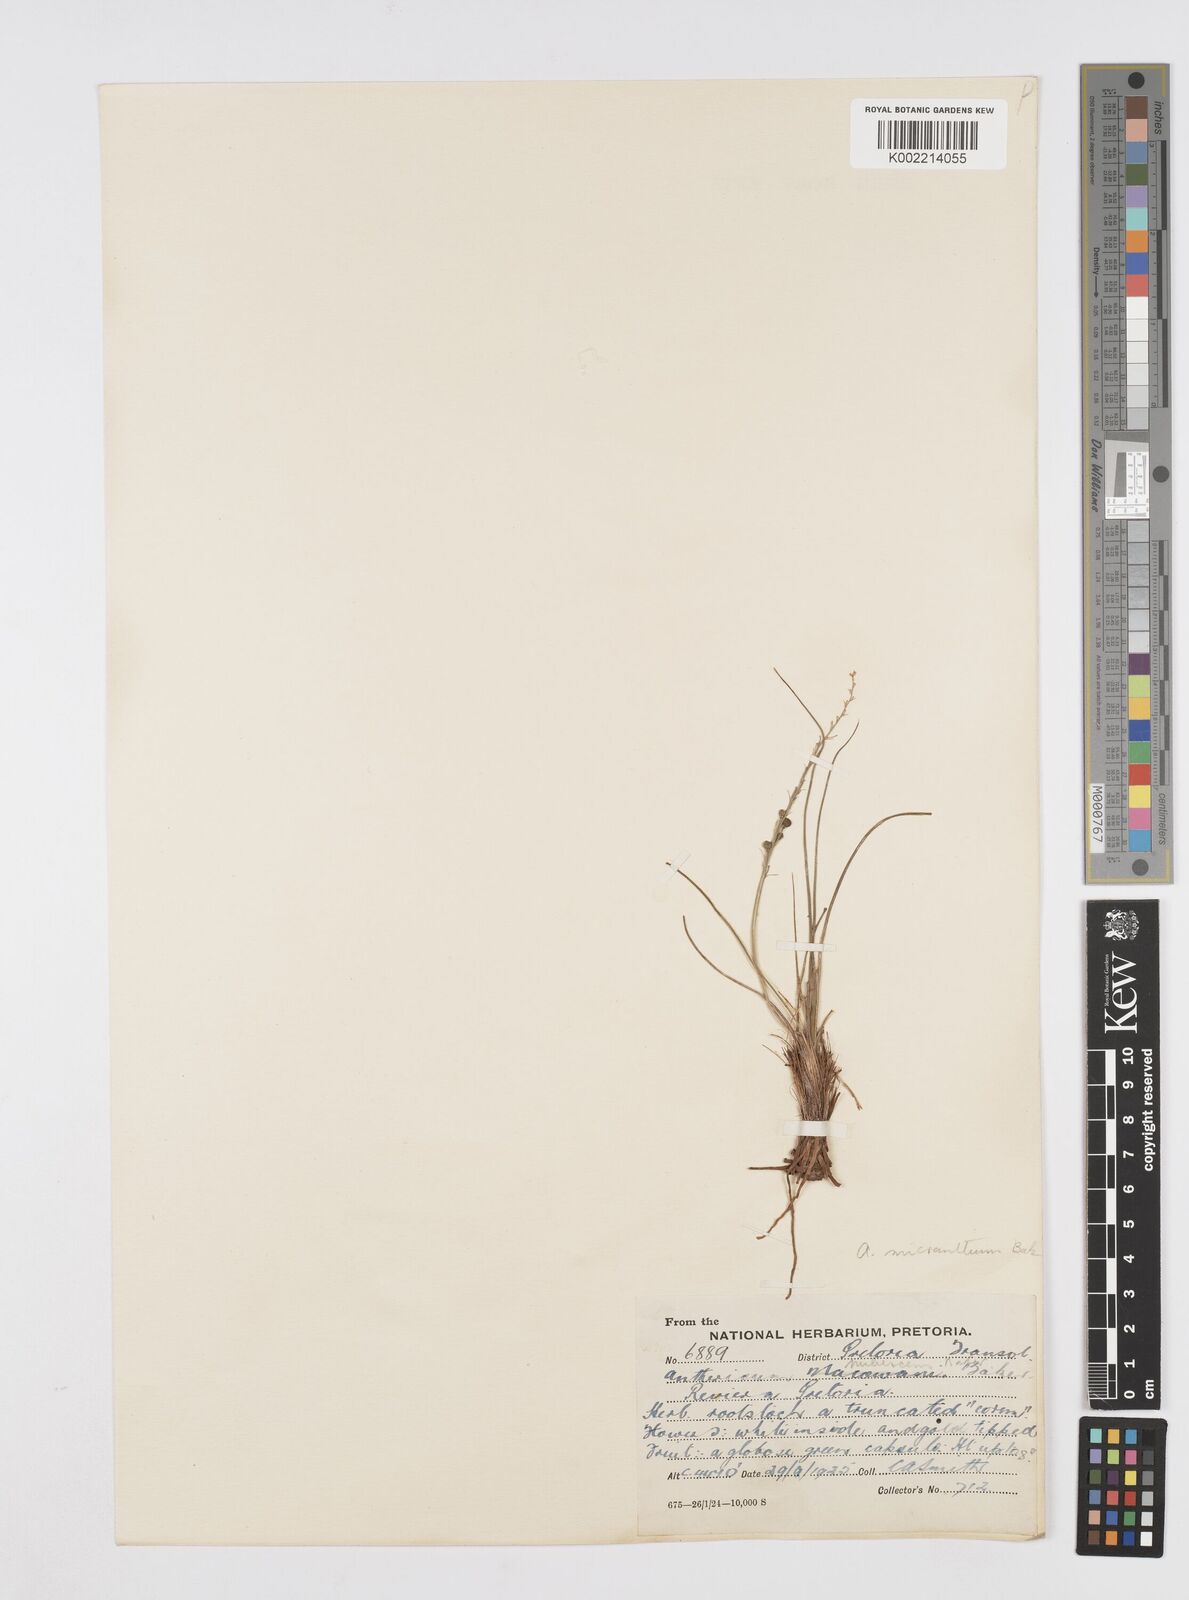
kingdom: Plantae
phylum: Tracheophyta
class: Liliopsida
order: Asparagales
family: Asphodelaceae
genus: Trachyandra
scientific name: Trachyandra
